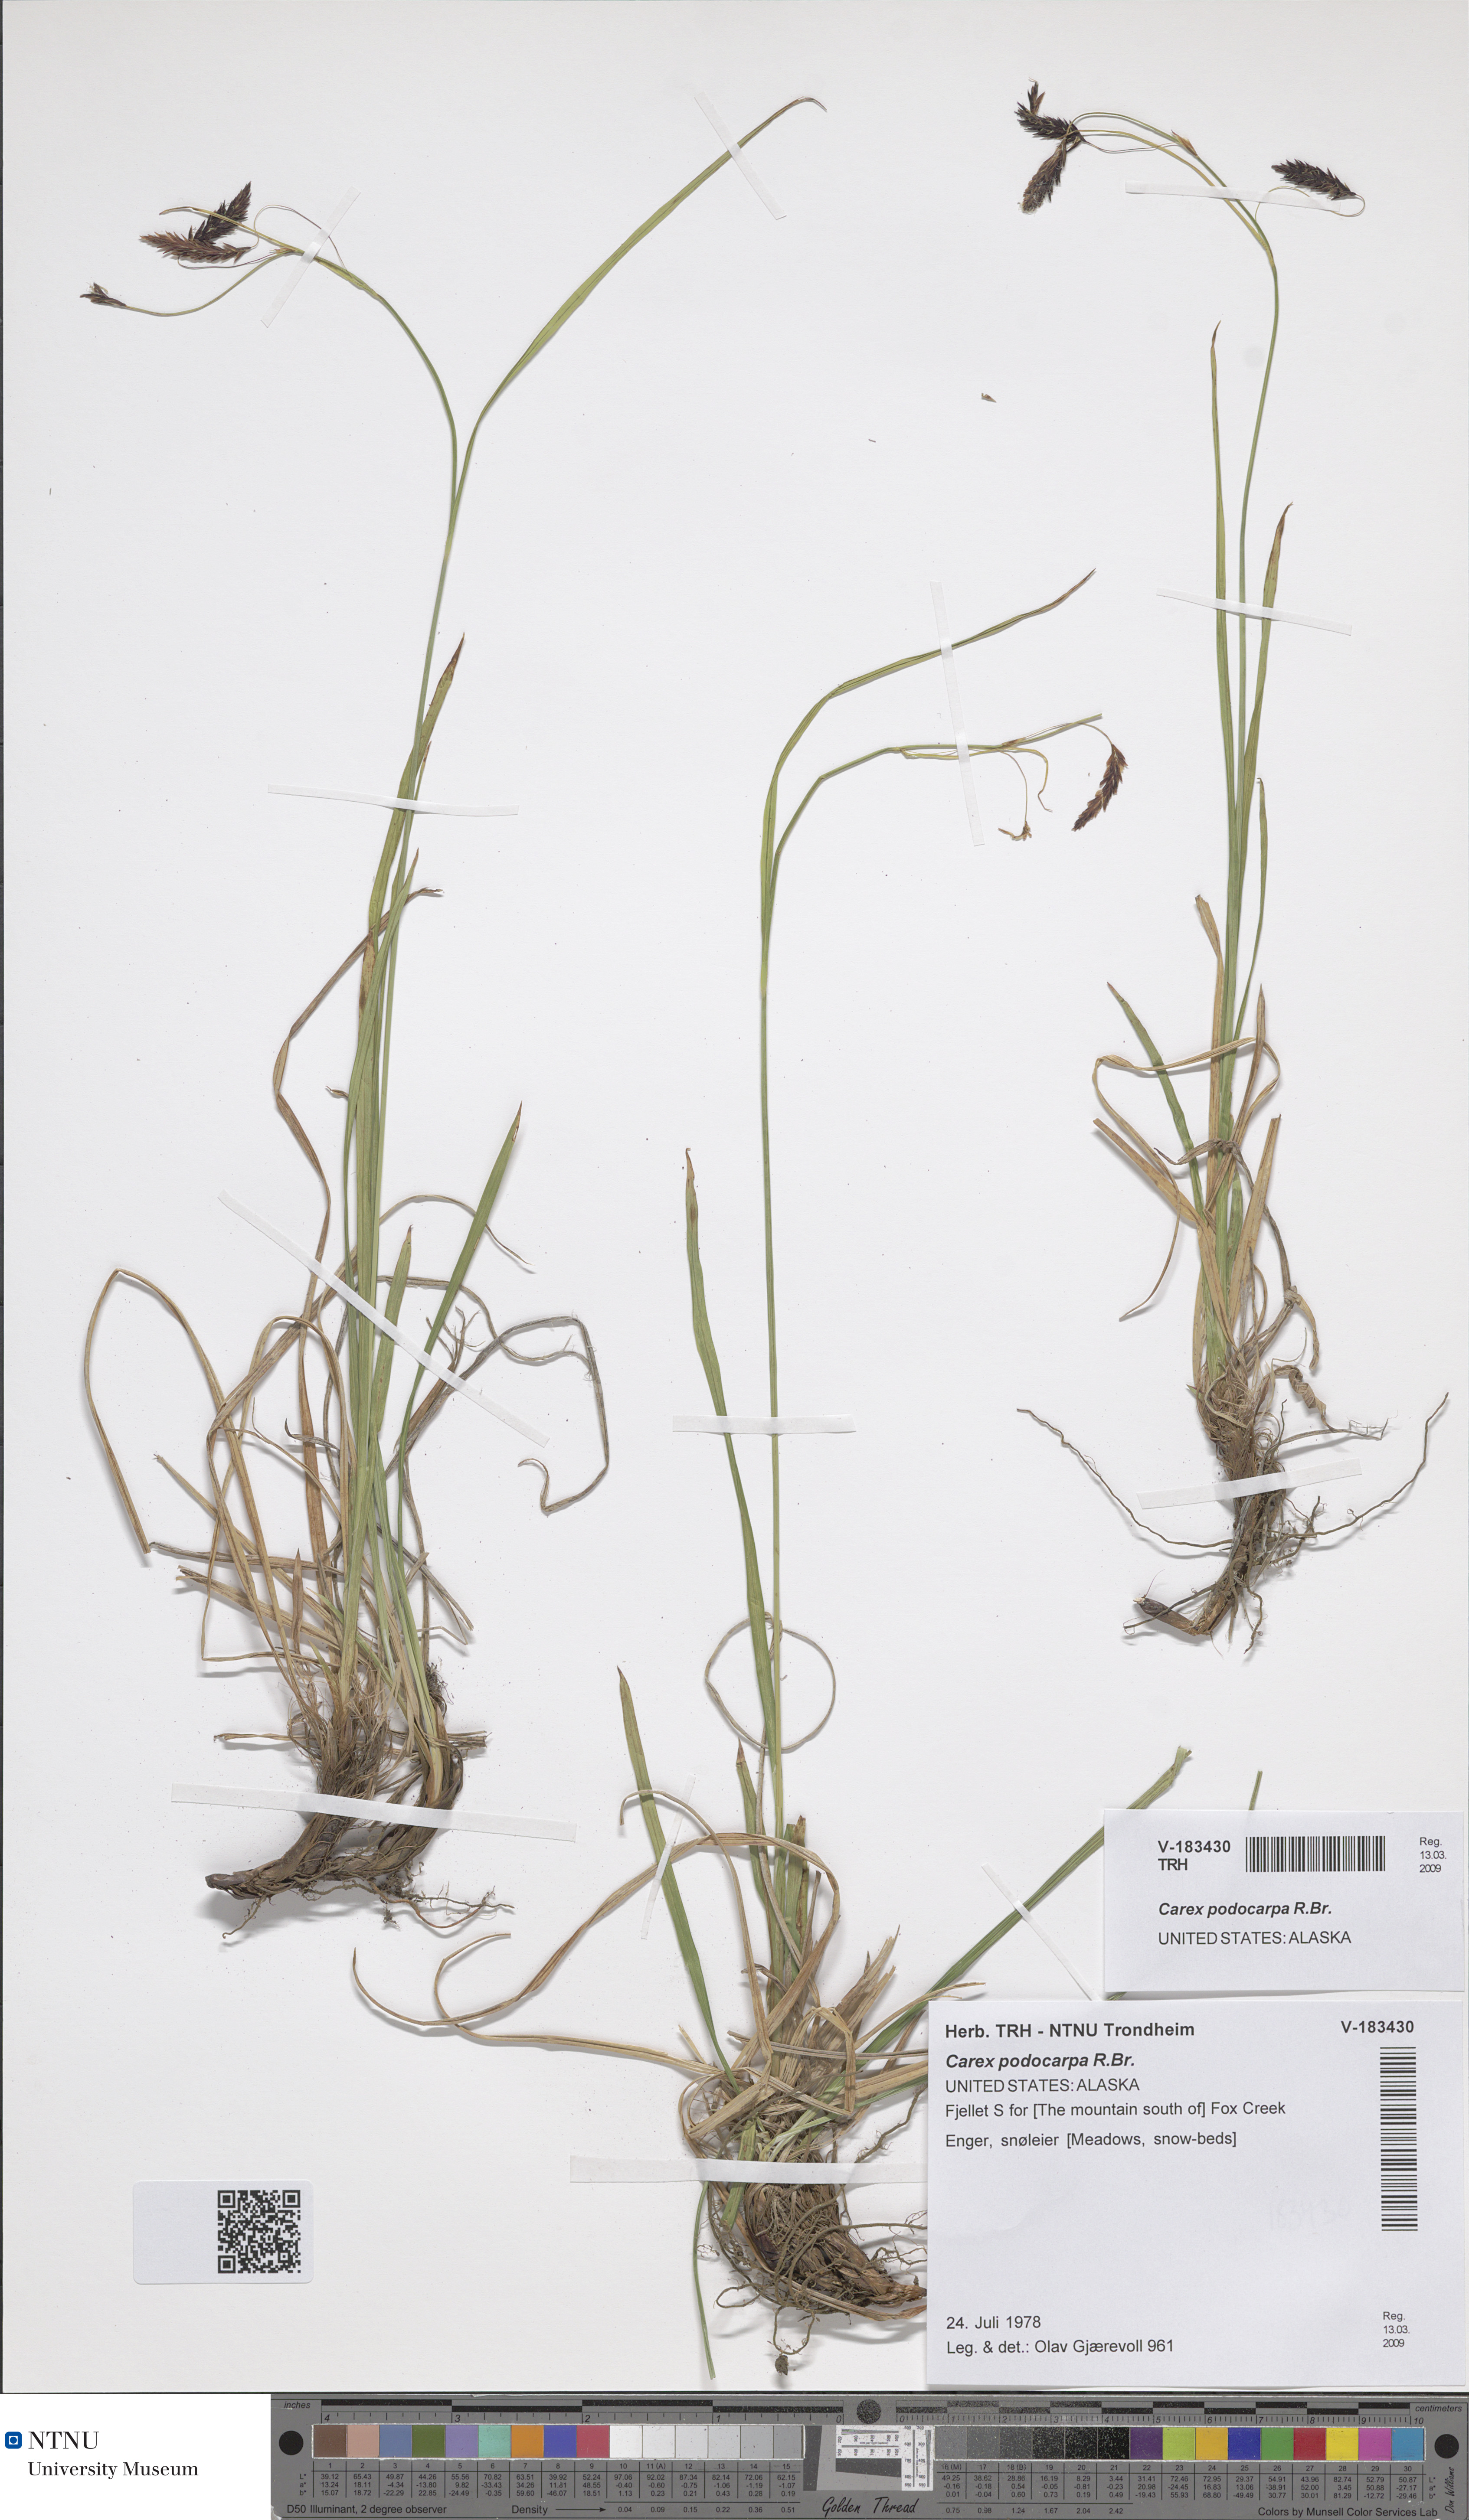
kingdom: Plantae
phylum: Tracheophyta
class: Liliopsida
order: Poales
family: Cyperaceae
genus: Carex
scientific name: Carex podocarpa
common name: Alpine sedge
